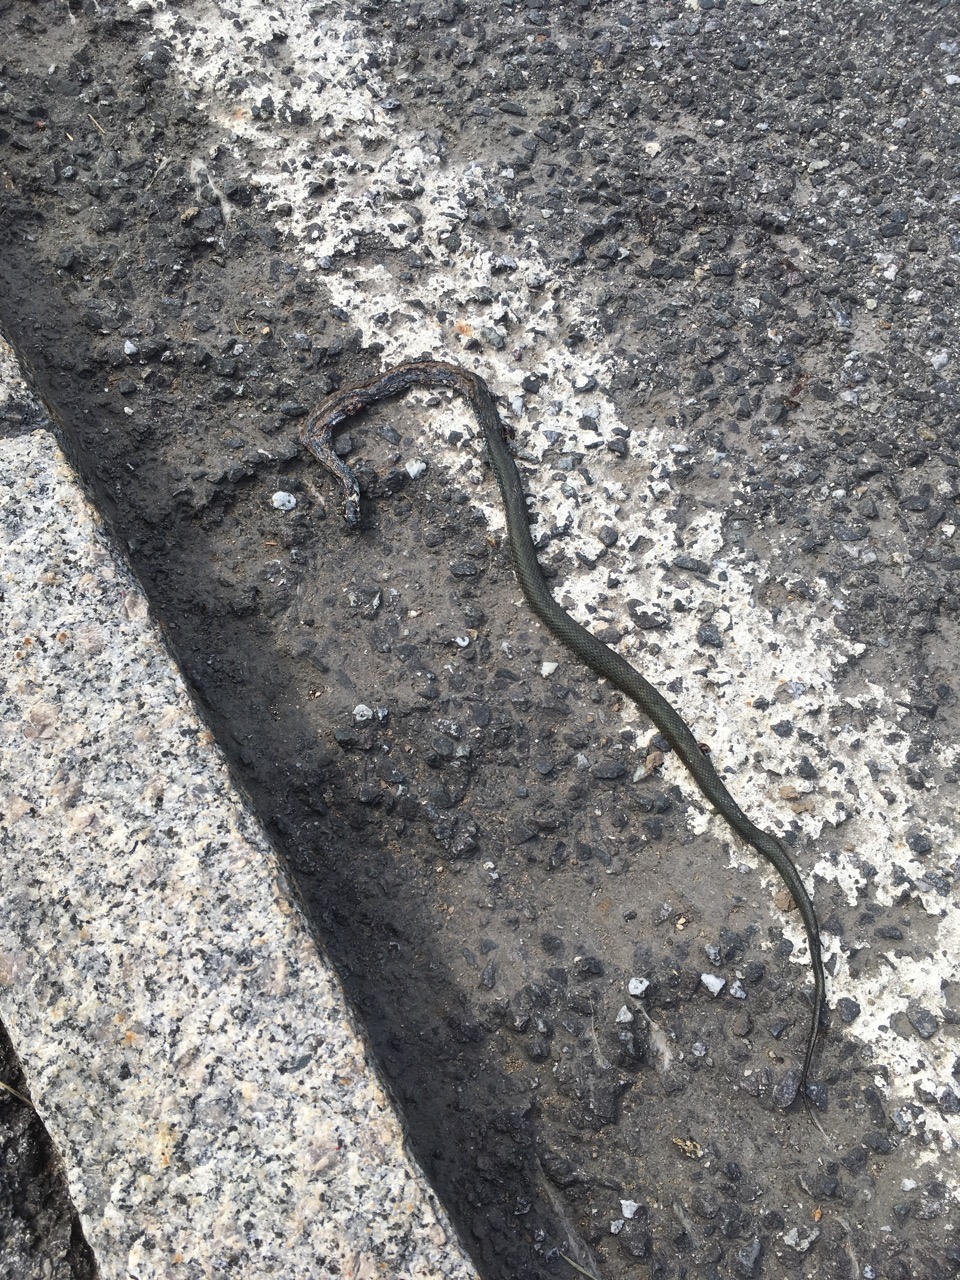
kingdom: Animalia
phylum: Chordata
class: Squamata
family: Colubridae
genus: Natrix
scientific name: Natrix natrix
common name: Grass snake
